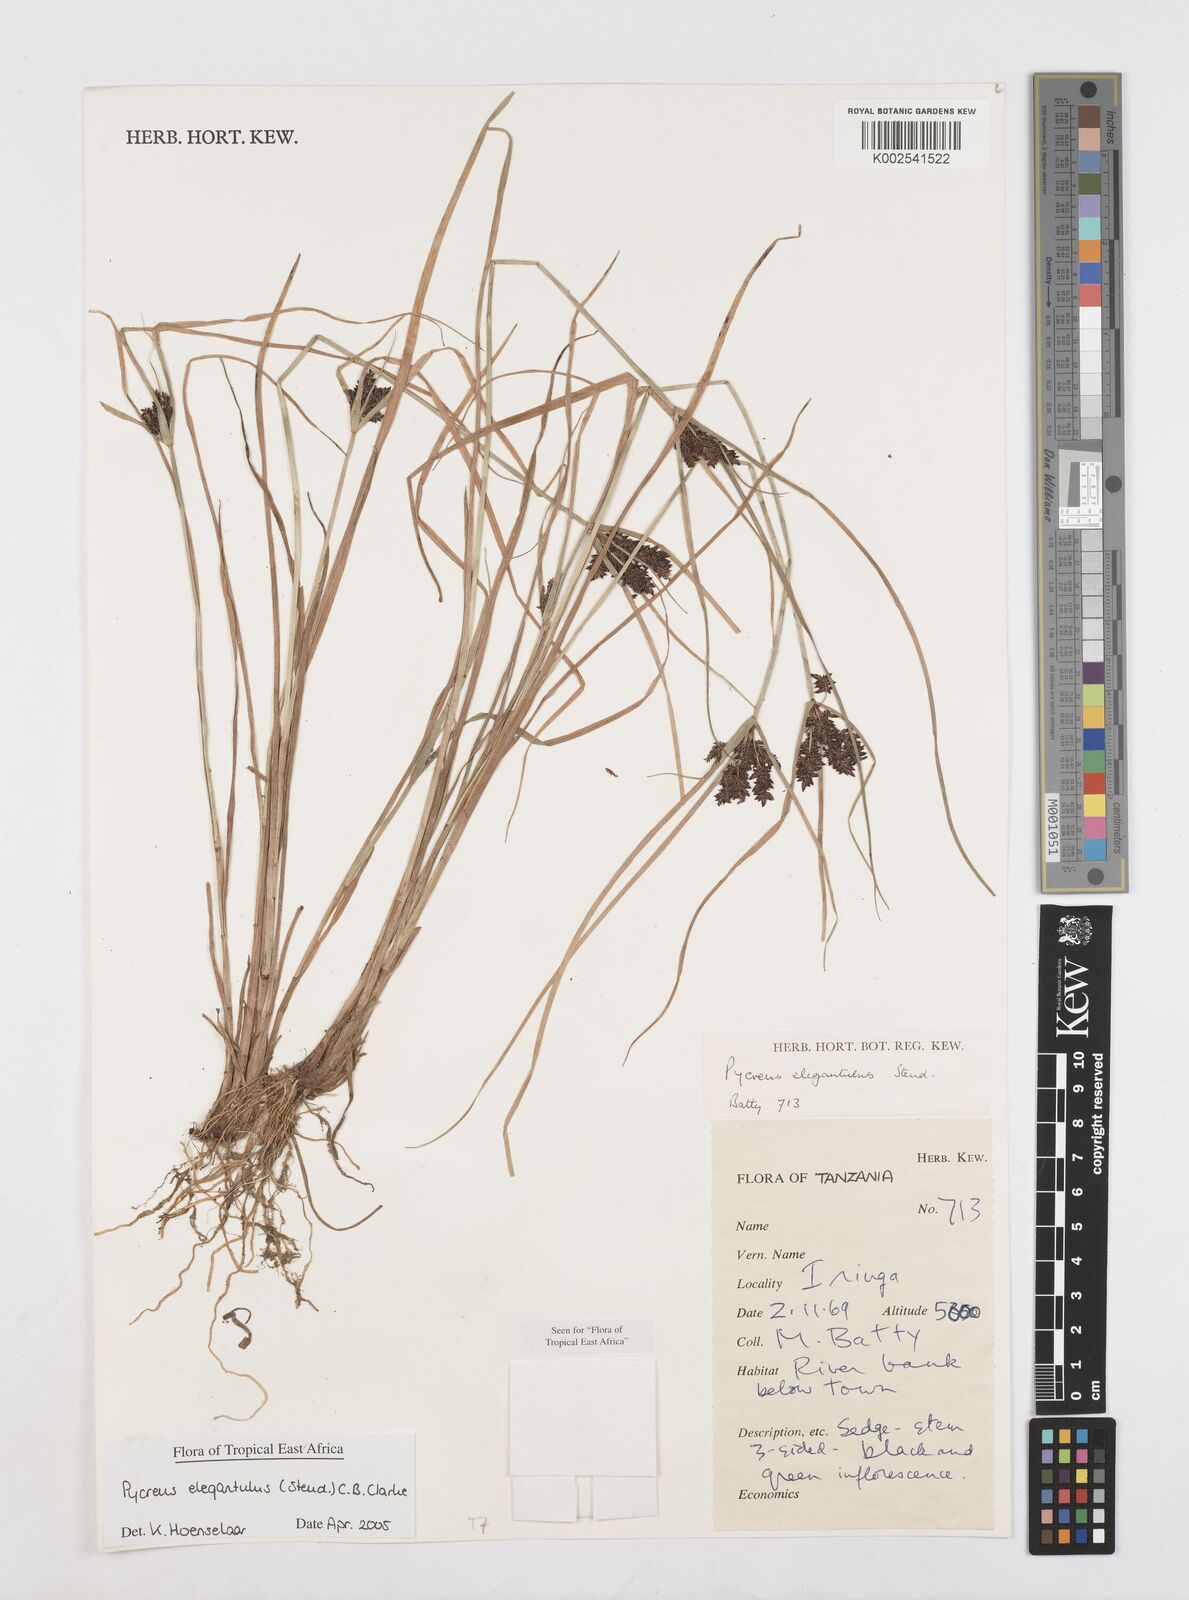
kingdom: Plantae
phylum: Tracheophyta
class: Liliopsida
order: Poales
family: Cyperaceae
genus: Cyperus
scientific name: Cyperus elegantulus
